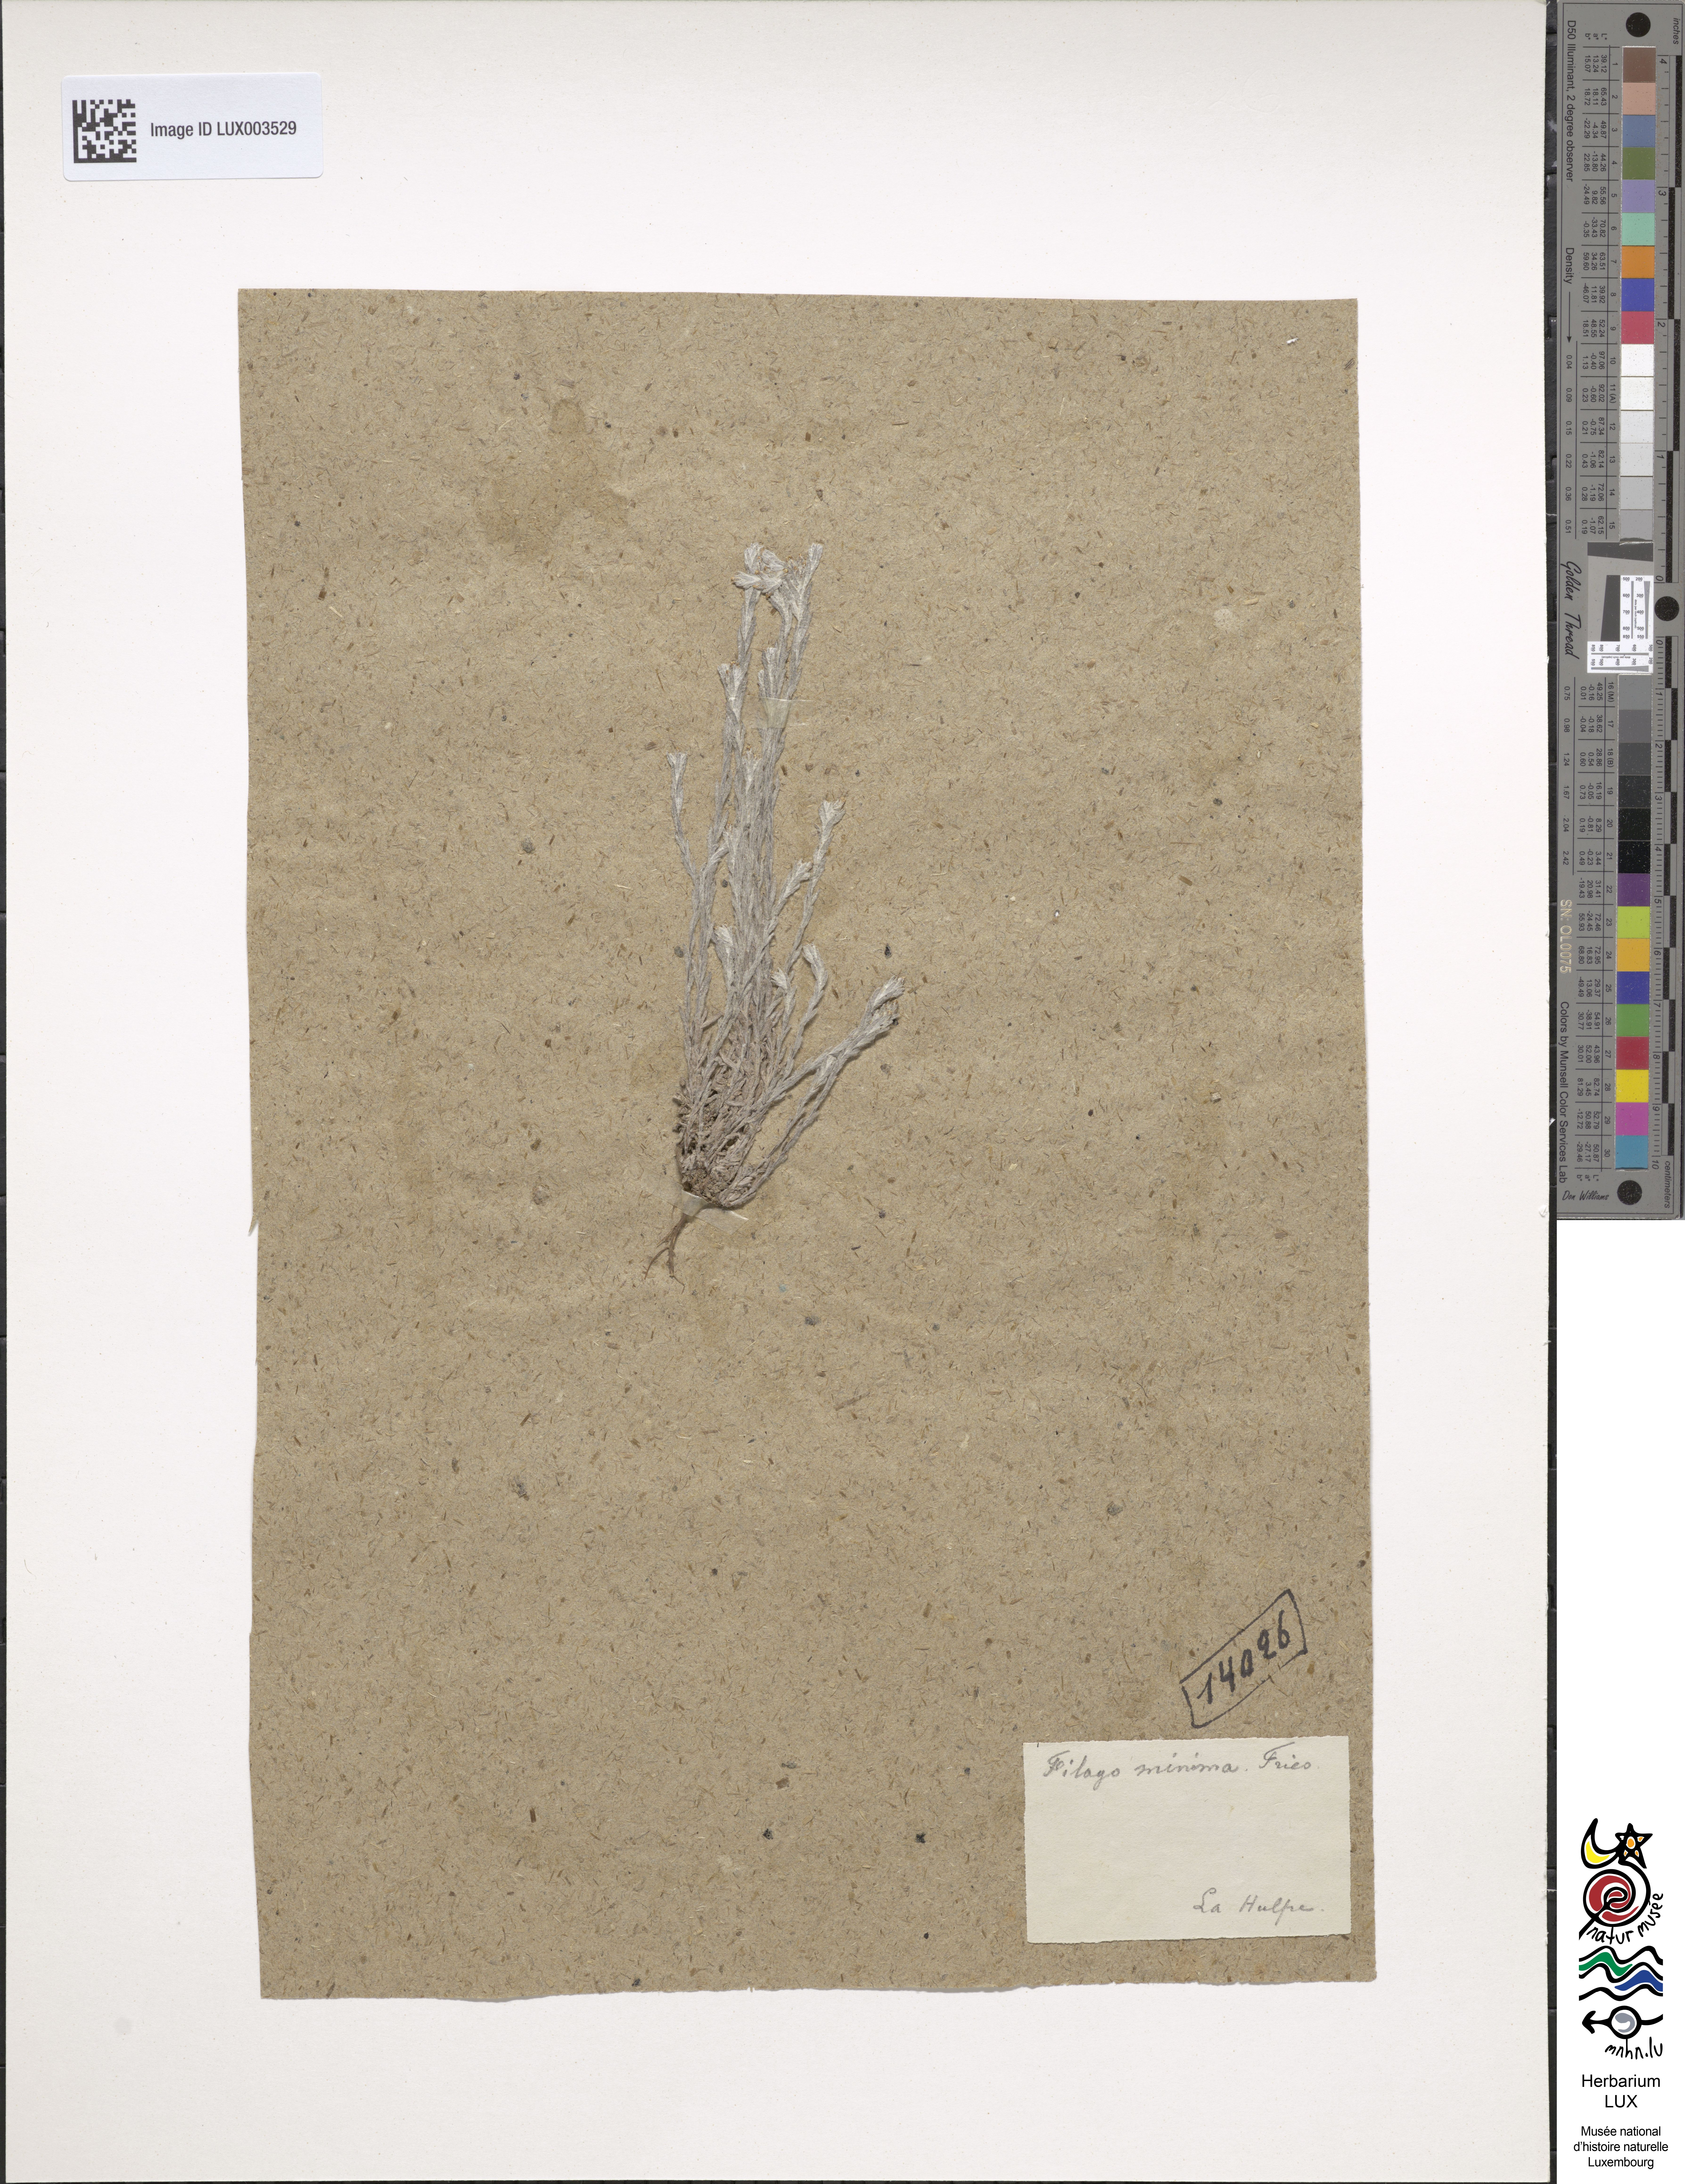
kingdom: Plantae
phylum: Tracheophyta
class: Magnoliopsida
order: Asterales
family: Asteraceae
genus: Logfia
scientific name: Logfia minima
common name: Little cottonrose
